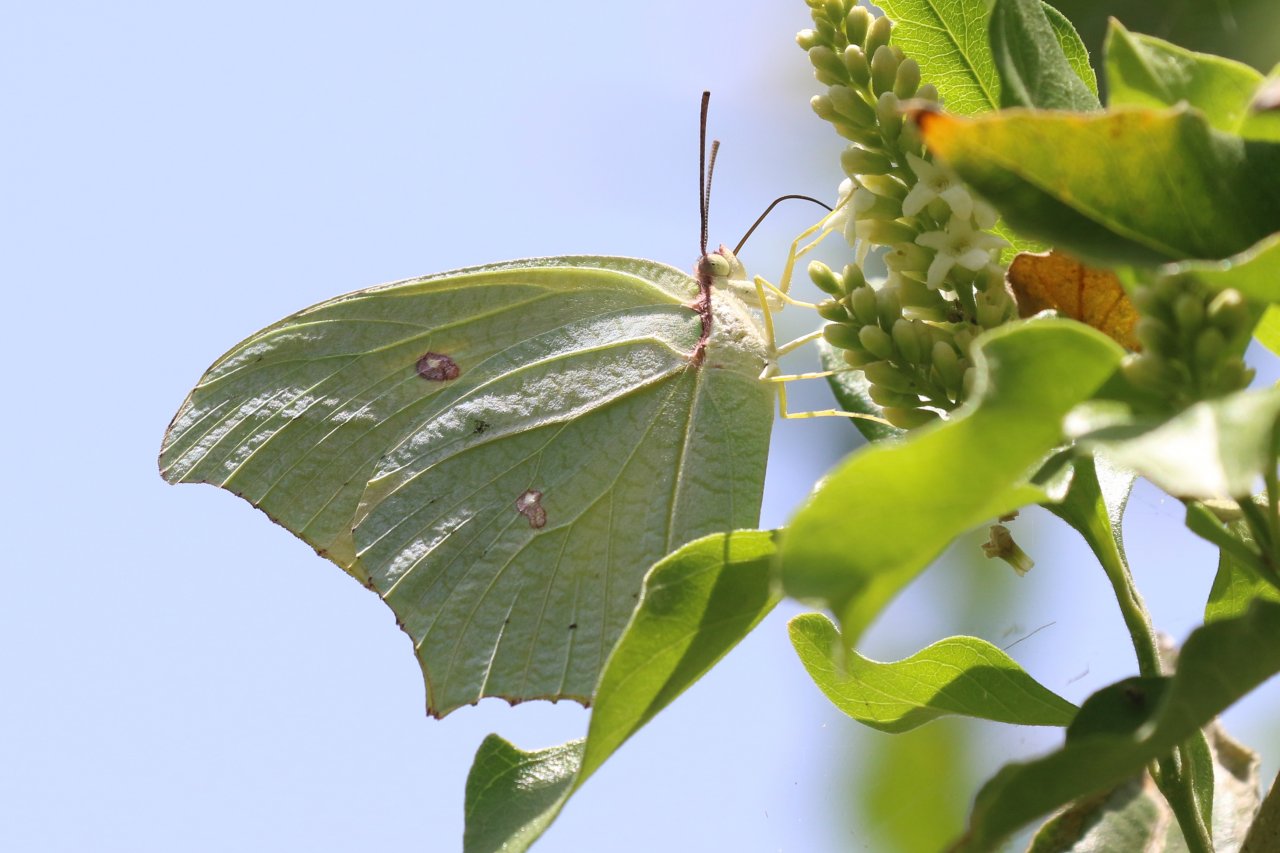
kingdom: Animalia
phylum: Arthropoda
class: Insecta
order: Lepidoptera
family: Pieridae
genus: Anteos
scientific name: Anteos maerula
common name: Yellow Angled-Sulphur
